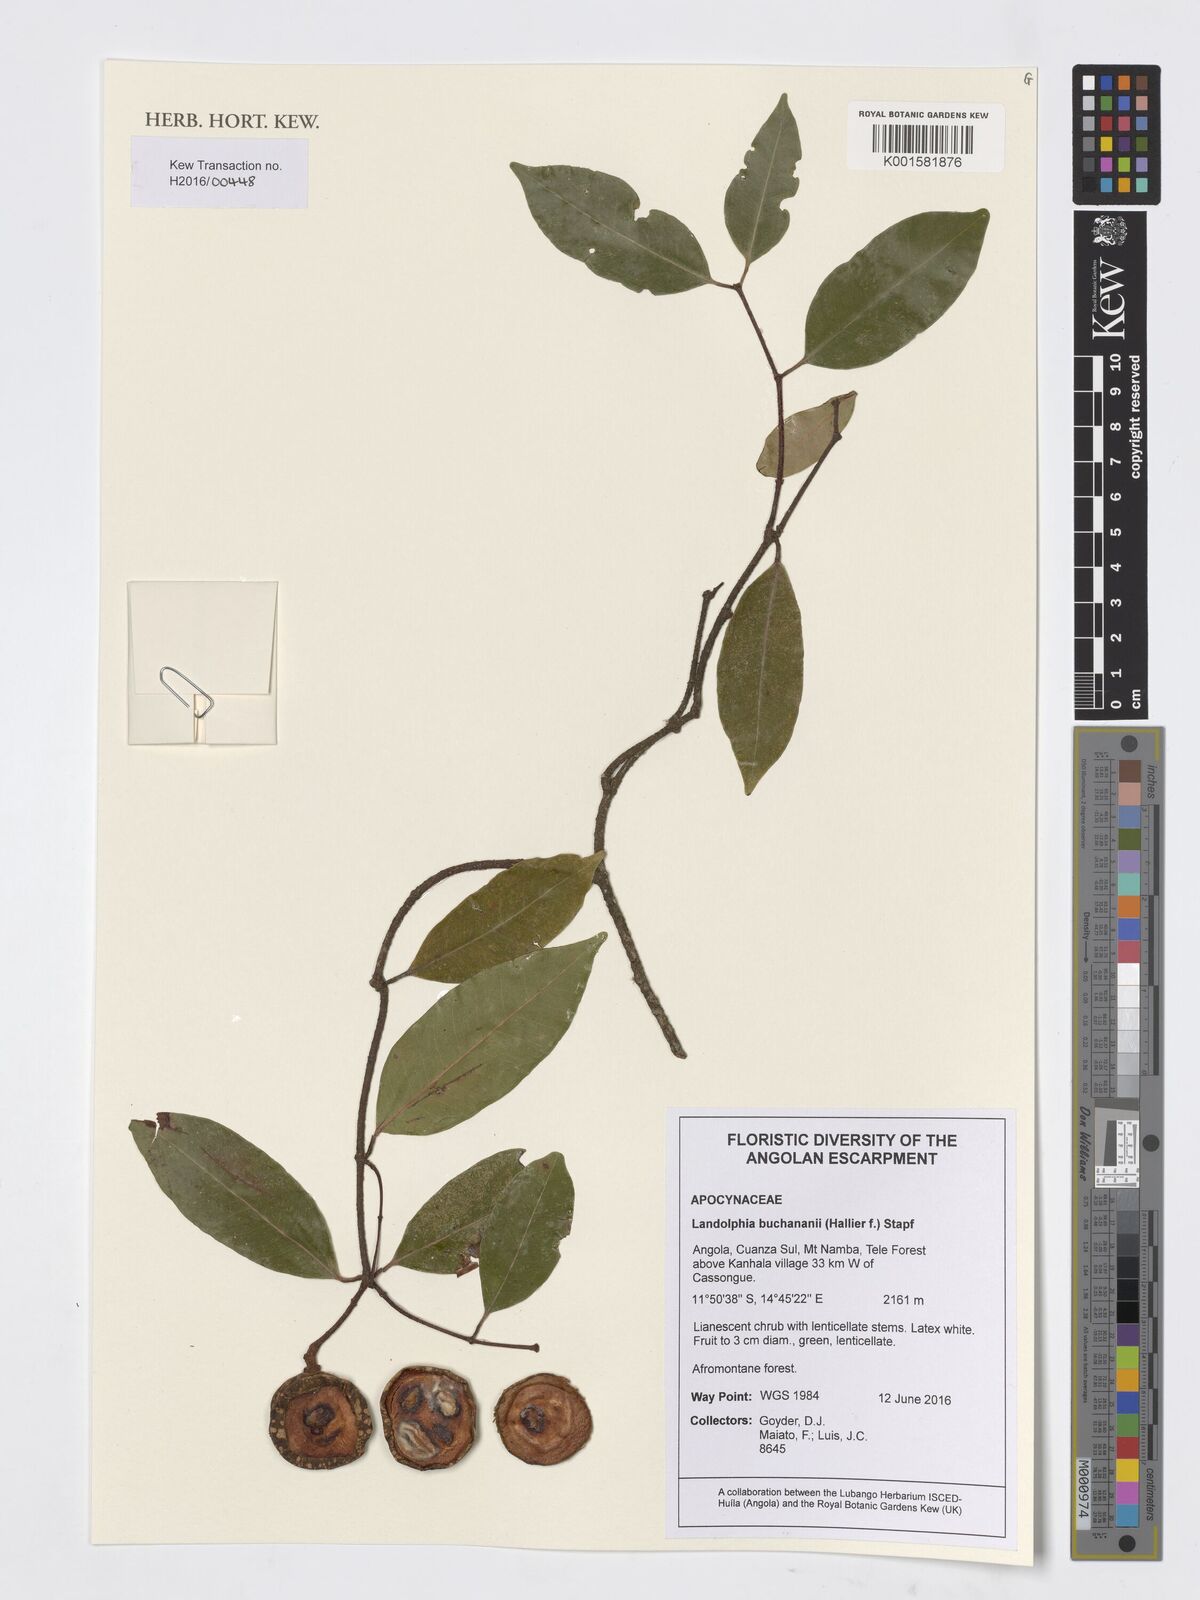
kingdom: Plantae
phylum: Tracheophyta
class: Magnoliopsida
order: Gentianales
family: Apocynaceae
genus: Landolphia
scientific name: Landolphia buchananii
